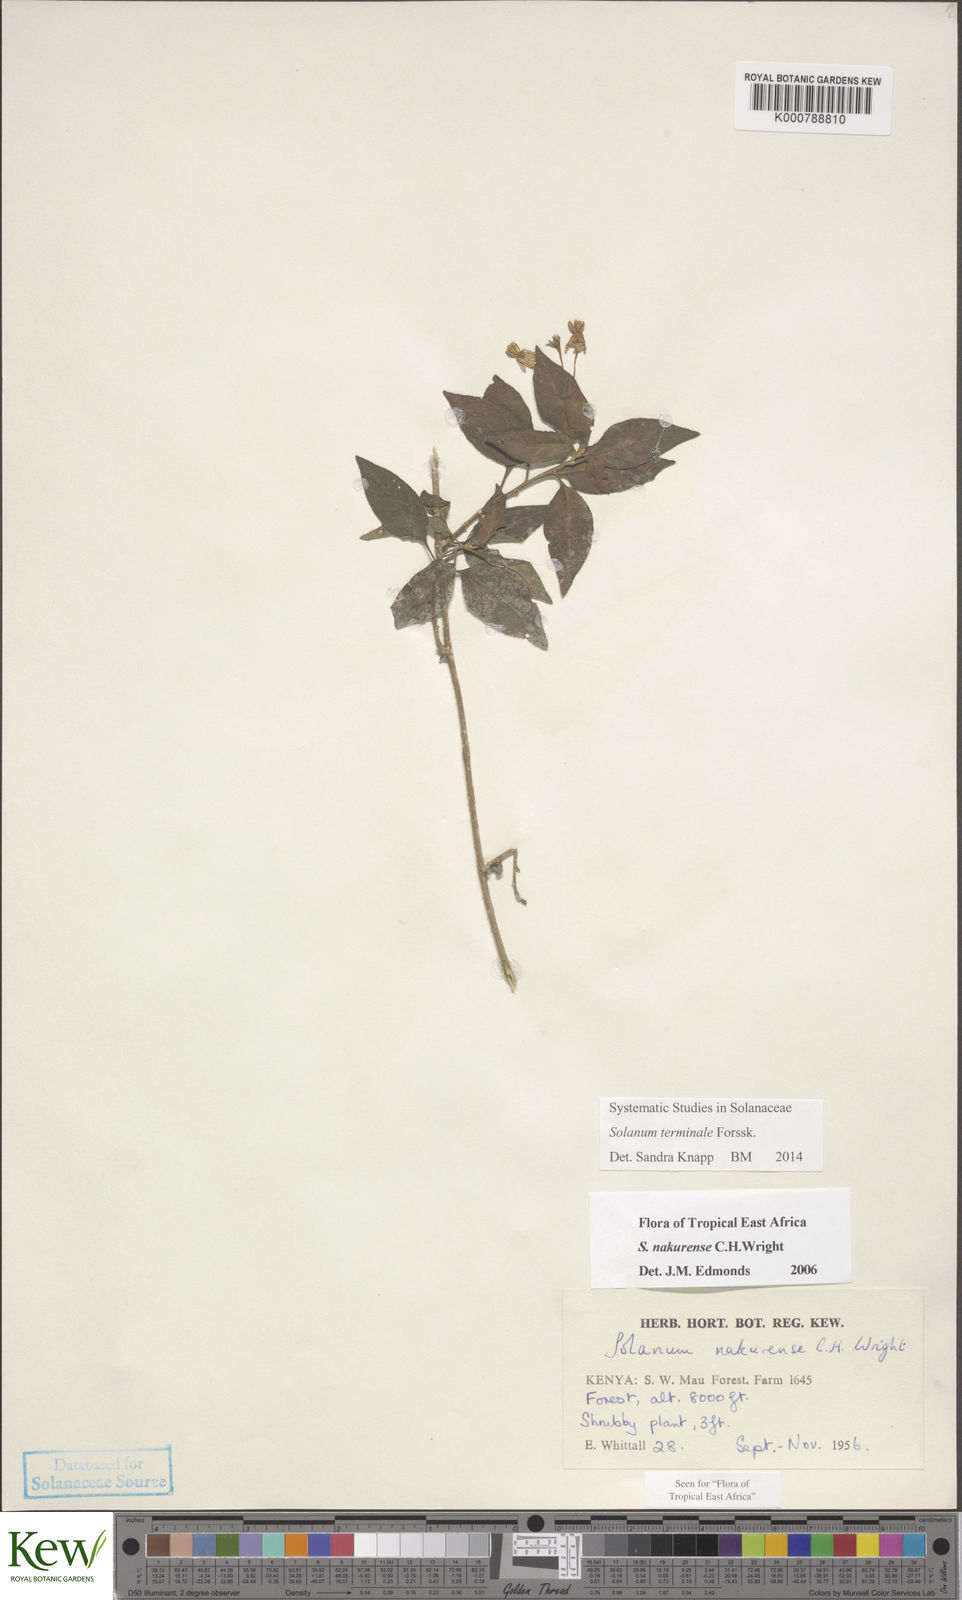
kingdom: Plantae
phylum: Tracheophyta
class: Magnoliopsida
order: Solanales
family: Solanaceae
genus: Solanum
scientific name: Solanum terminale
